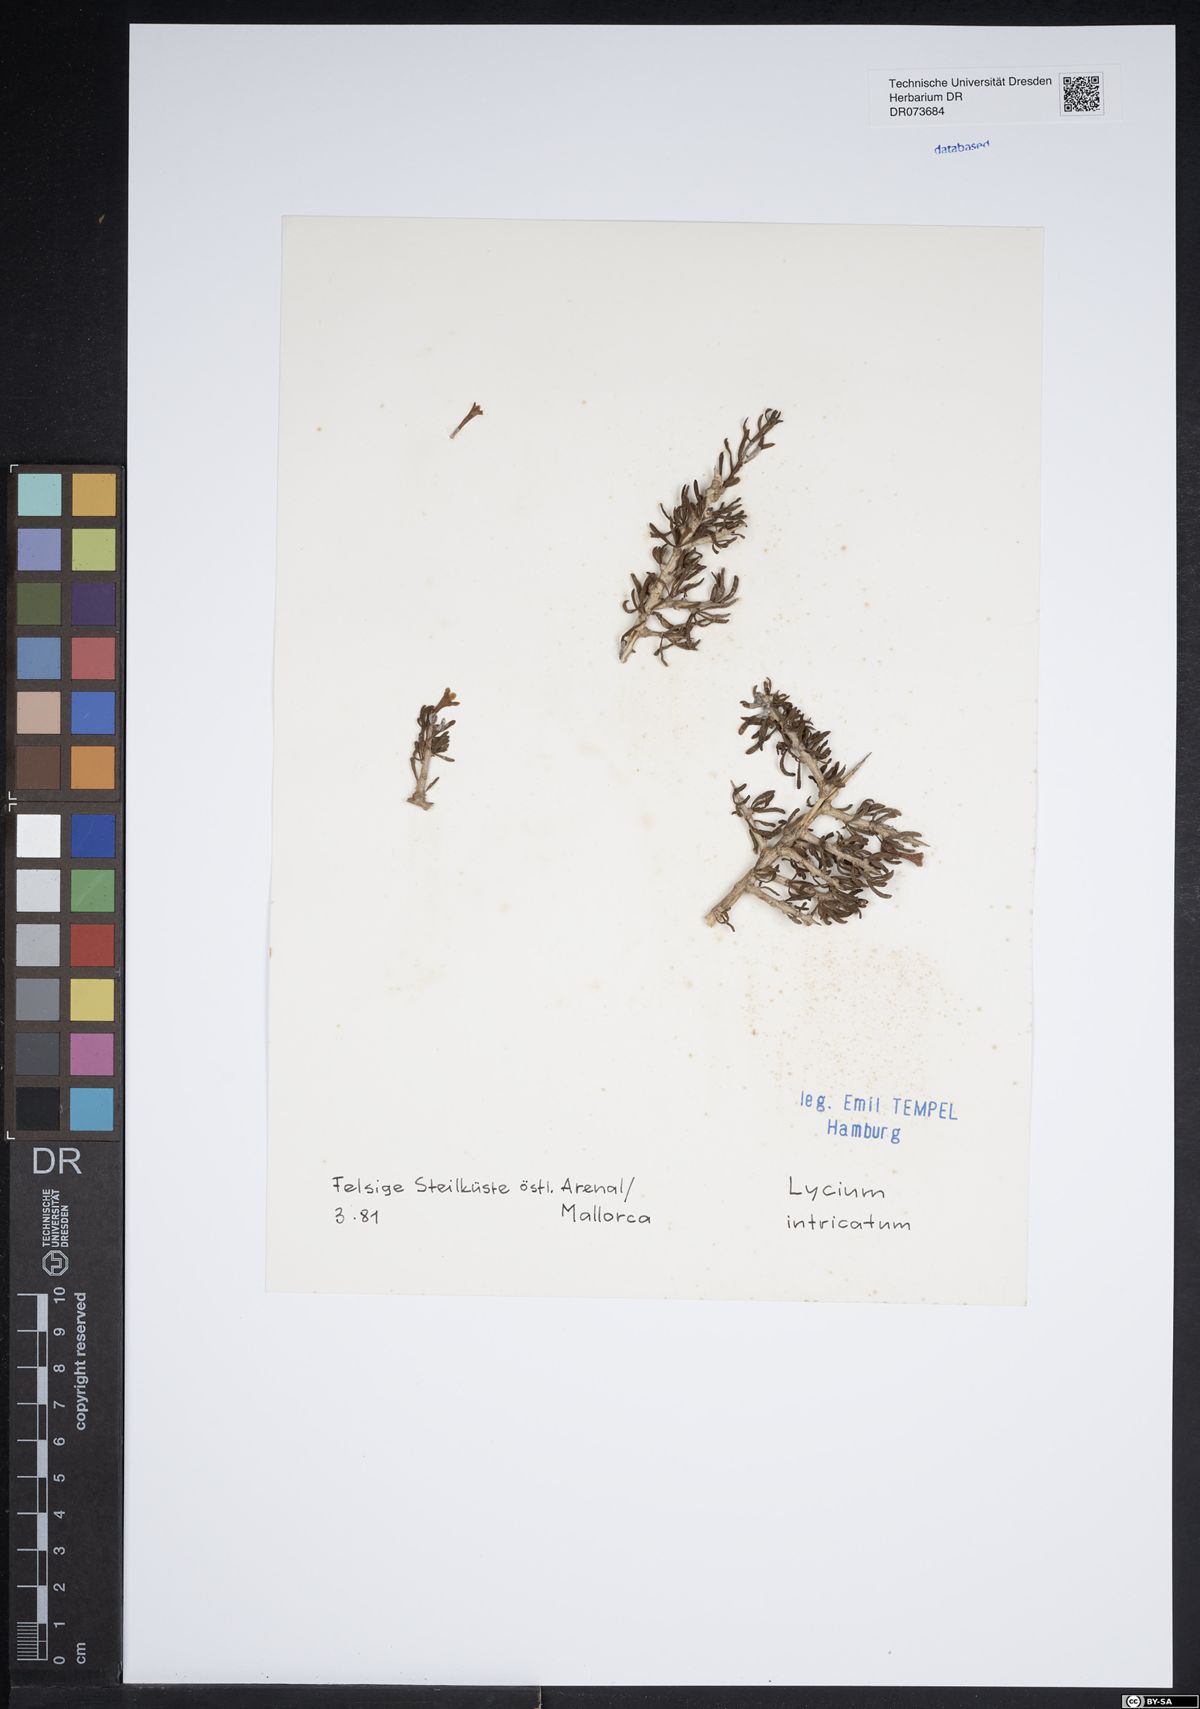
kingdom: Plantae
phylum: Tracheophyta
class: Magnoliopsida
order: Solanales
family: Solanaceae
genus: Lycium
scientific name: Lycium intricatum
